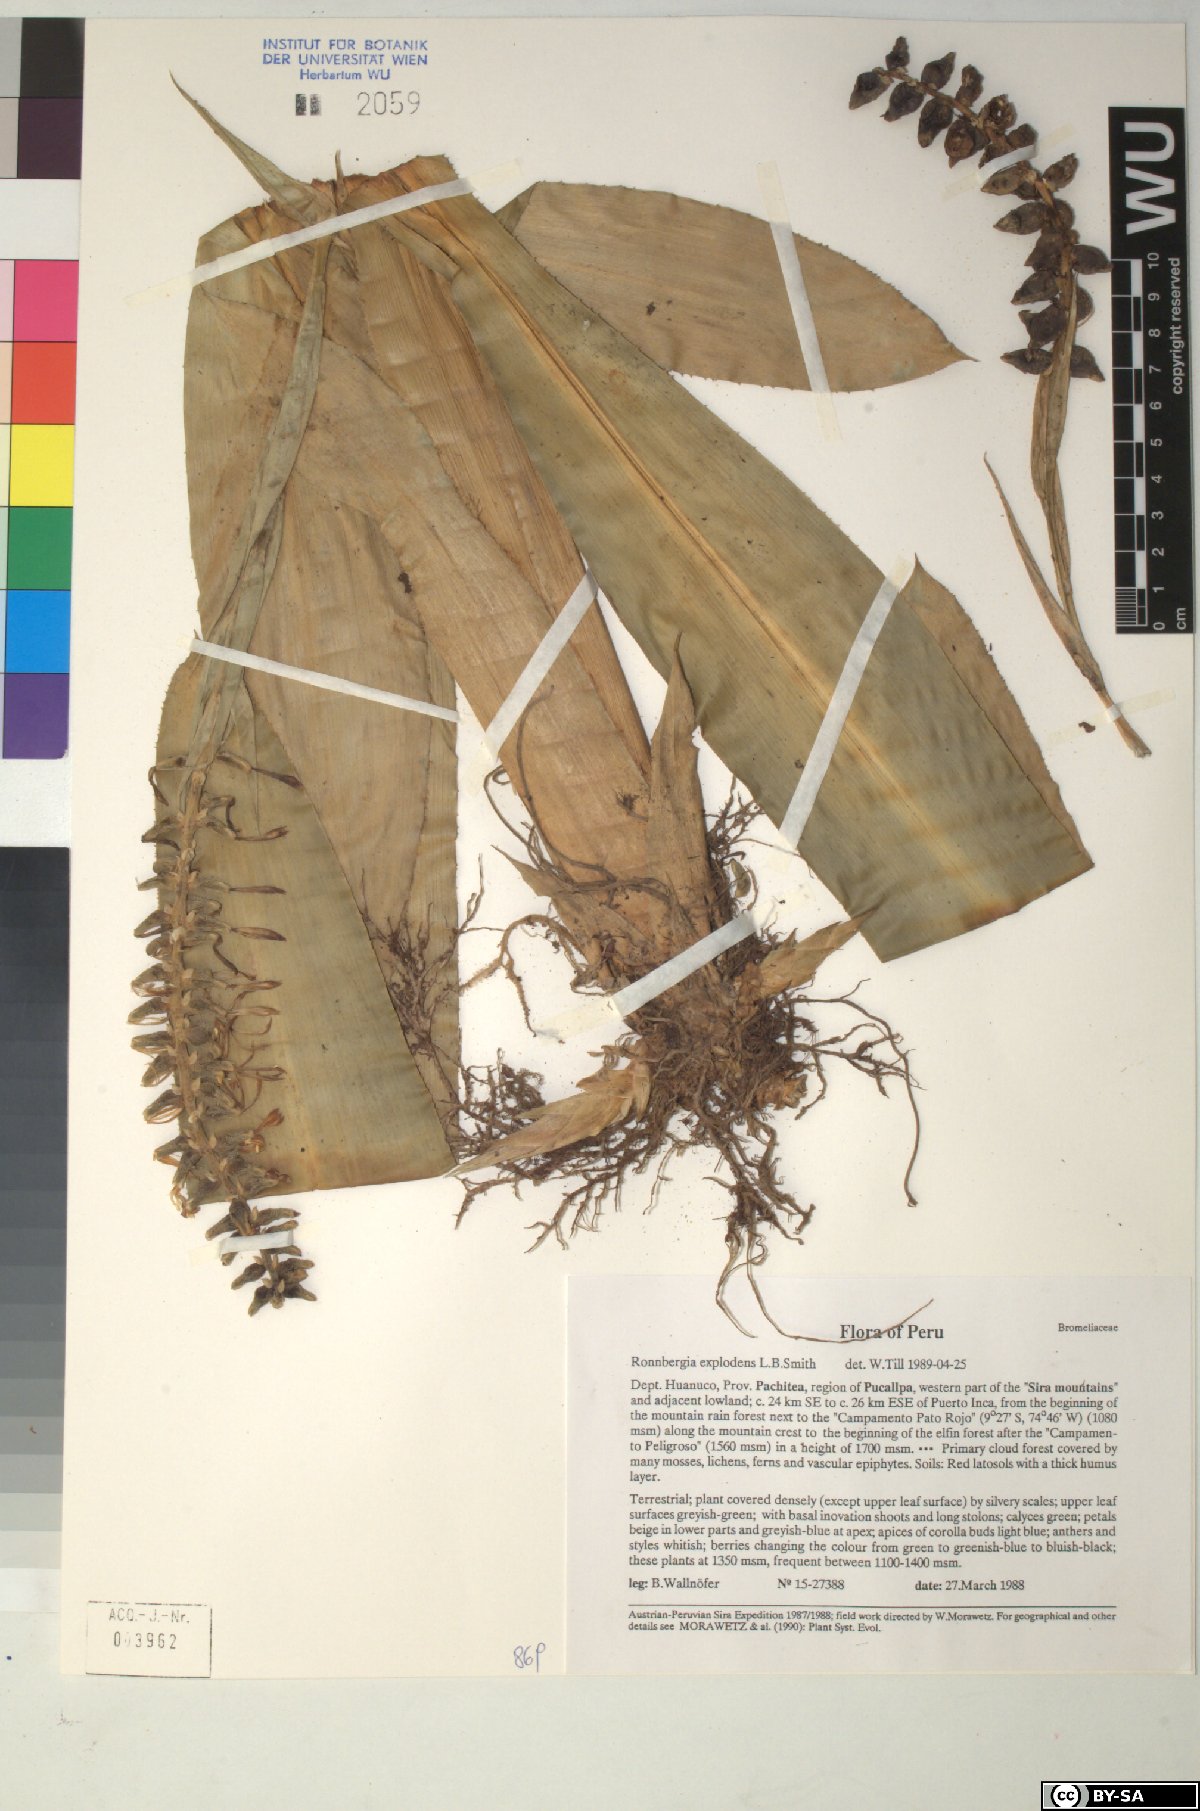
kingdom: Plantae
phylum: Tracheophyta
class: Liliopsida
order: Poales
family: Bromeliaceae
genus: Ronnbergia
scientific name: Ronnbergia
